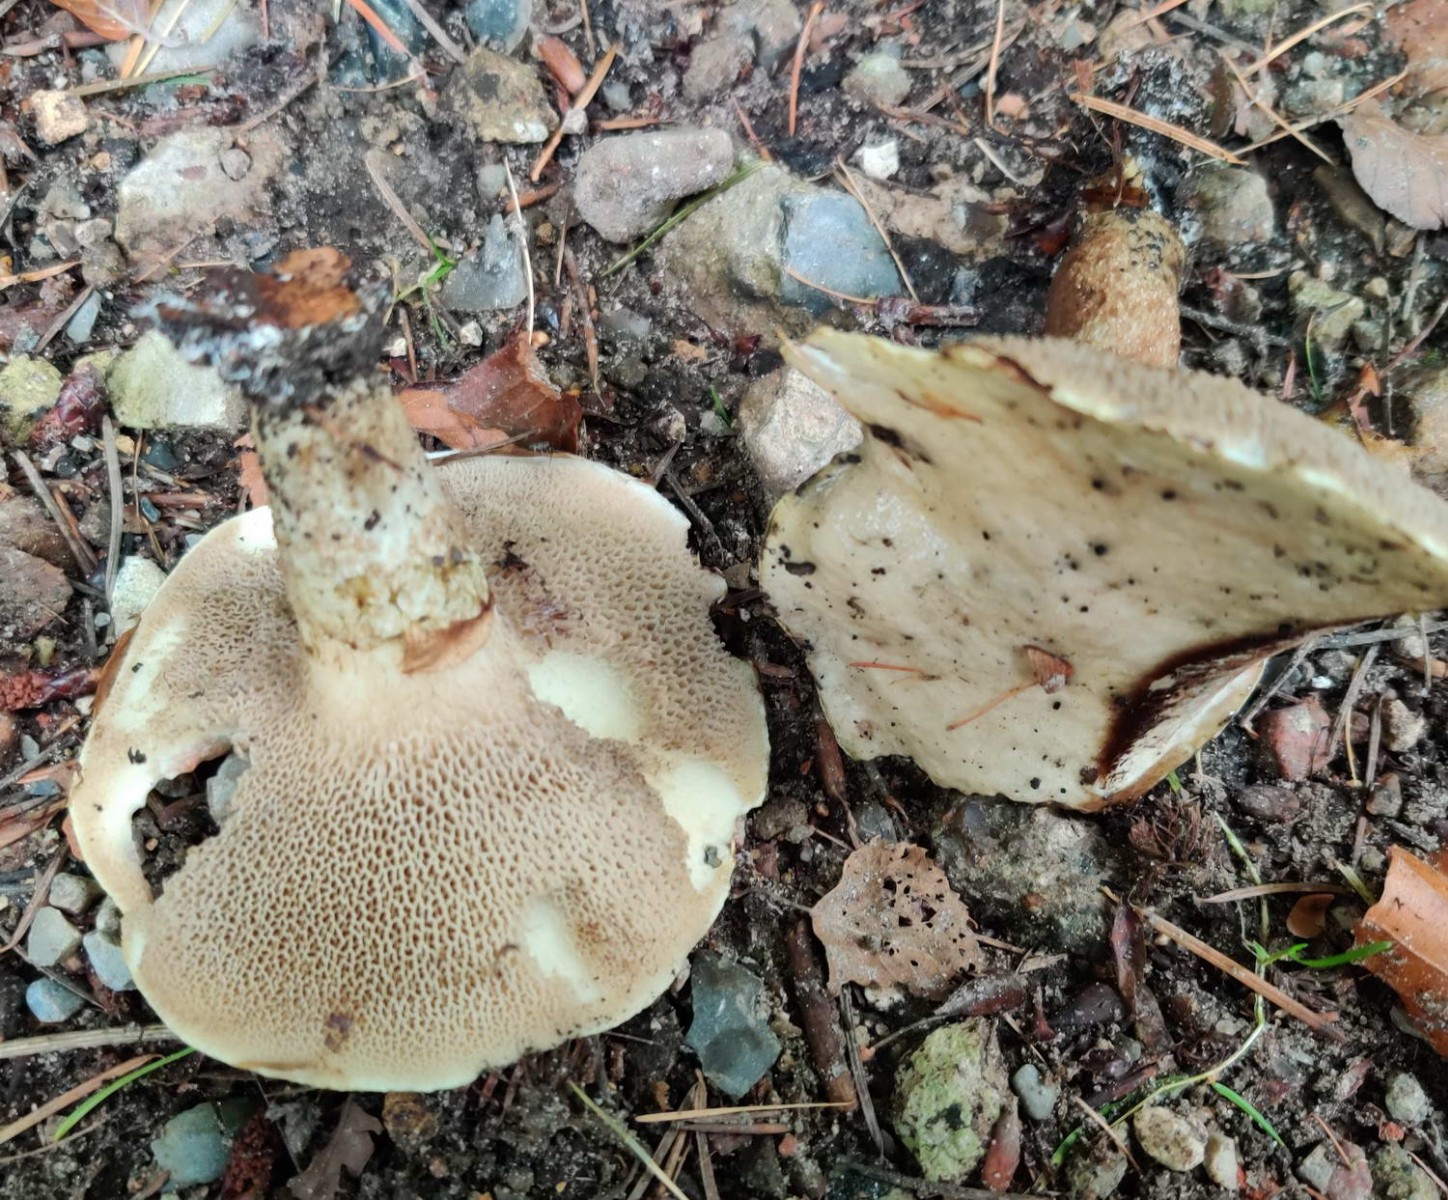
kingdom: Fungi
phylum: Basidiomycota
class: Agaricomycetes
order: Boletales
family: Suillaceae
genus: Suillus
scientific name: Suillus viscidus
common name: olivengrå slimrørhat
